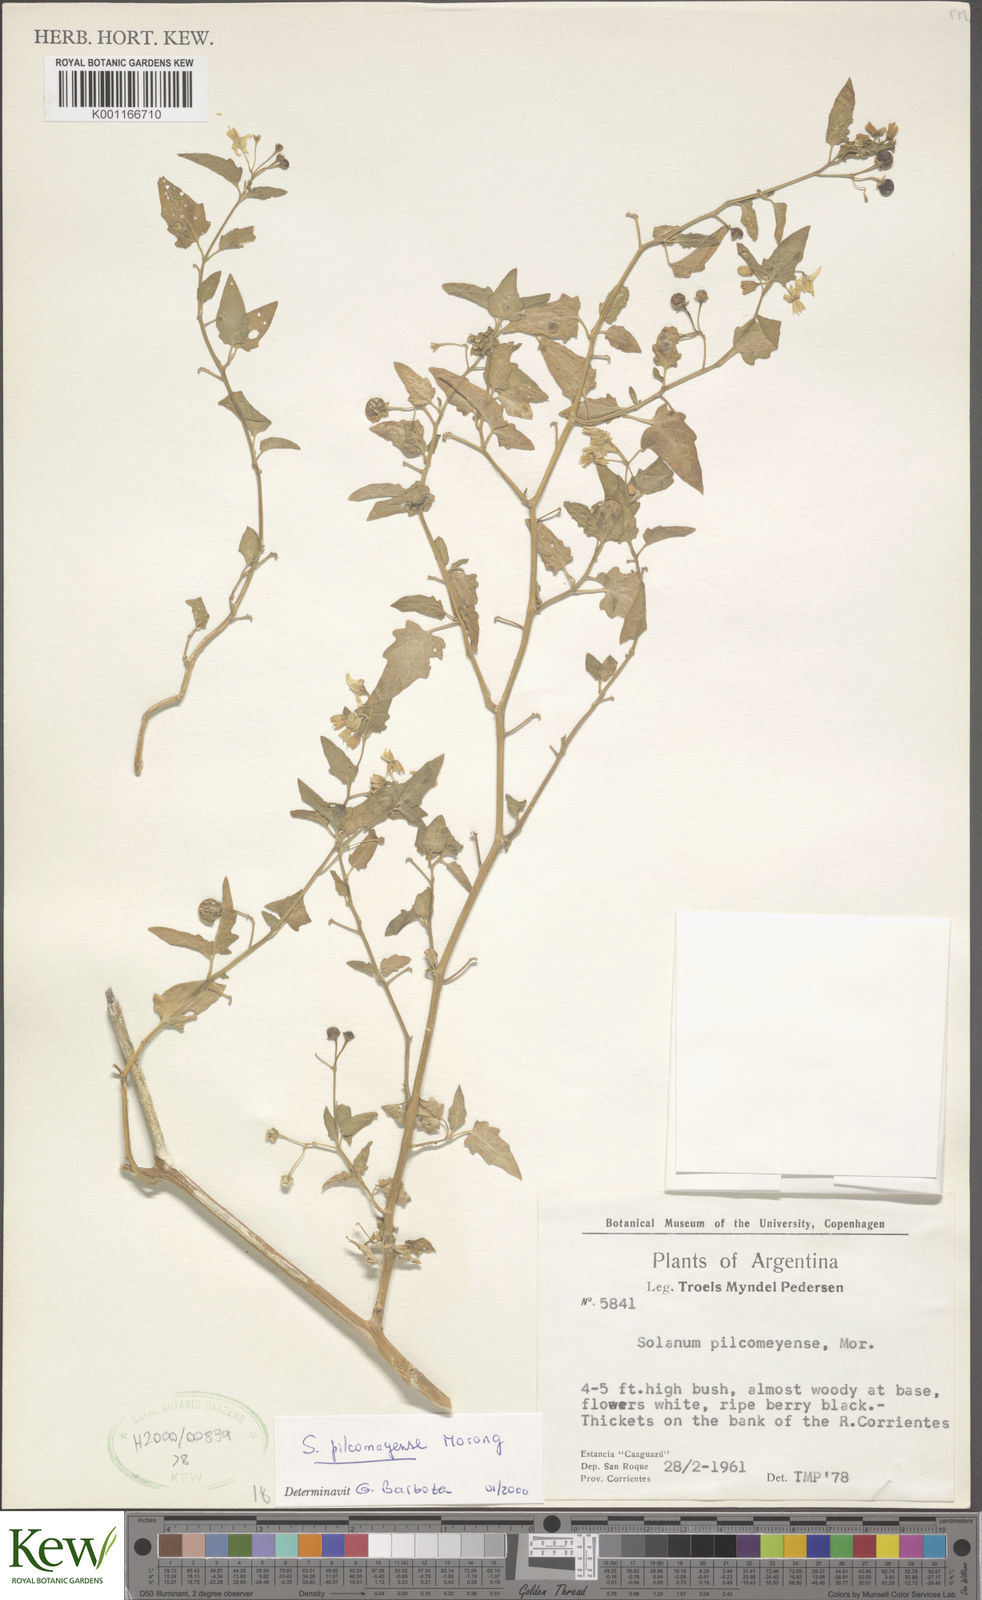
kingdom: Plantae
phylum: Tracheophyta
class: Magnoliopsida
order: Solanales
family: Solanaceae
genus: Solanum
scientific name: Solanum pilcomayense
